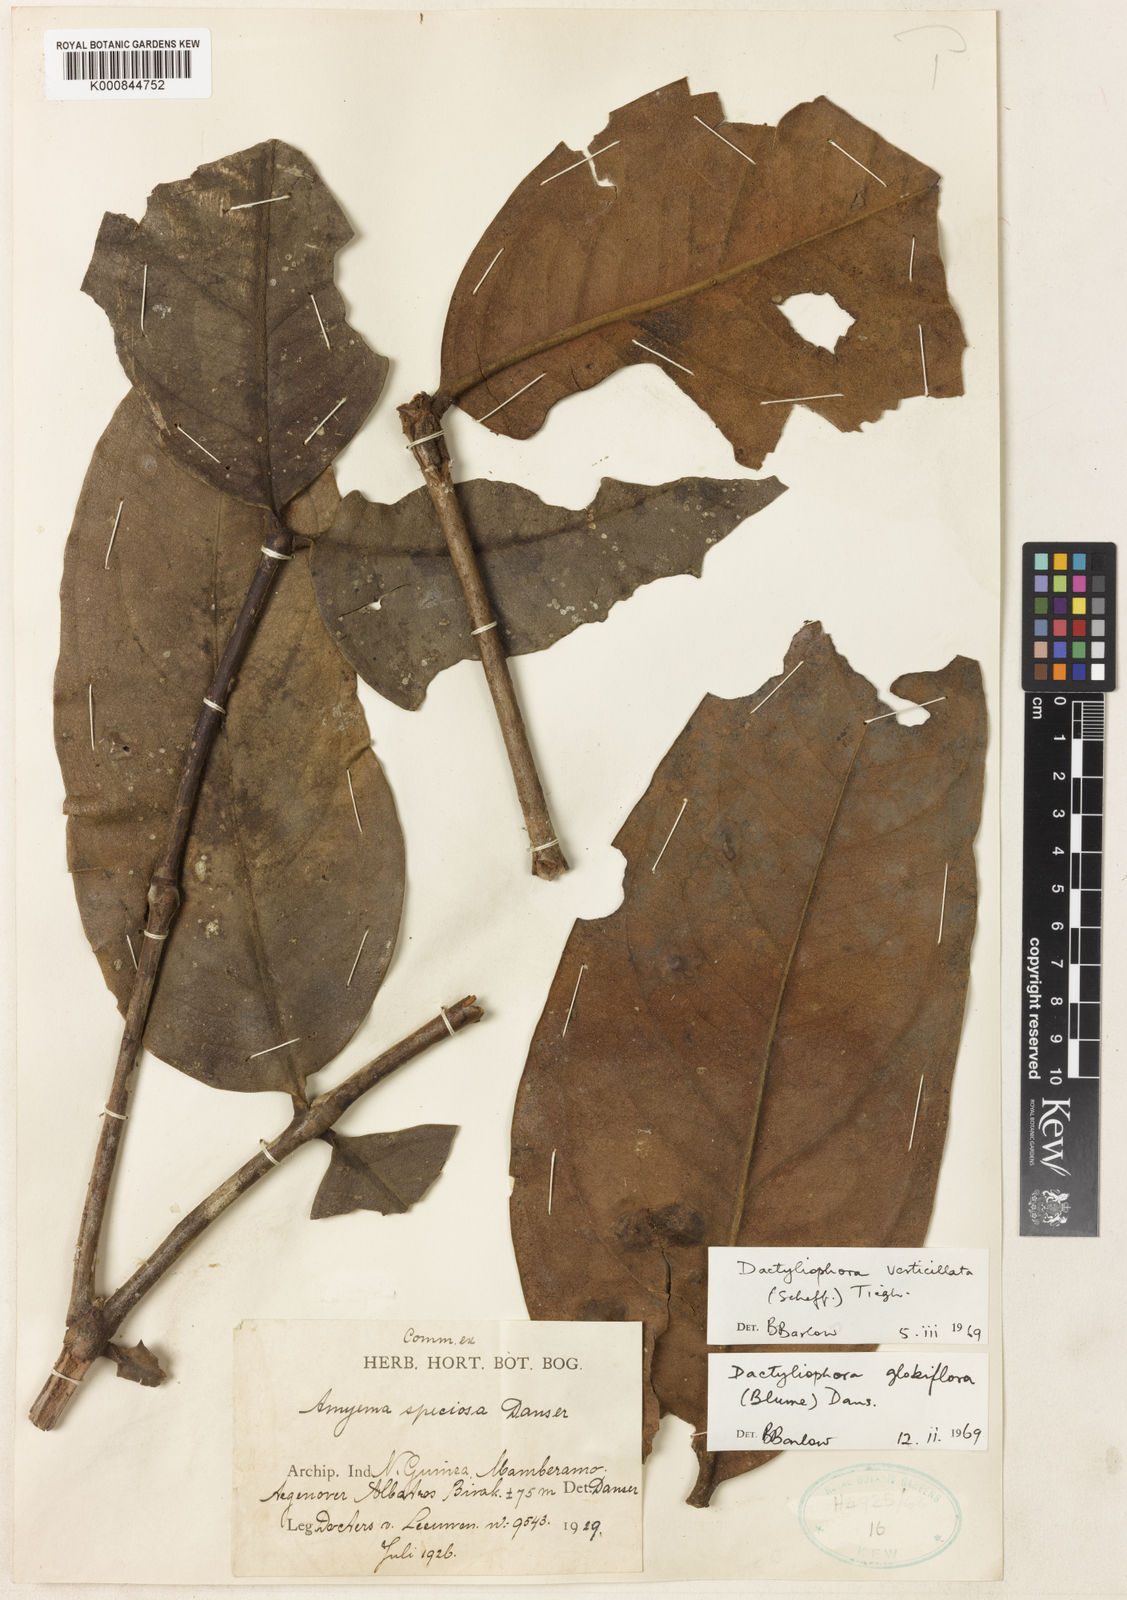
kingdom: Plantae
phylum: Tracheophyta
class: Magnoliopsida
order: Santalales
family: Loranthaceae
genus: Dactyliophora
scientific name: Dactyliophora verticillata
